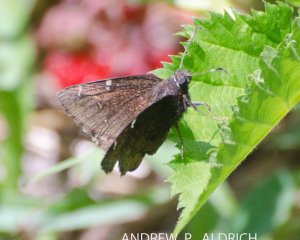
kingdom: Animalia
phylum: Arthropoda
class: Insecta
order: Lepidoptera
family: Hesperiidae
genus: Autochton
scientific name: Autochton
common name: Northern Cloudywing
